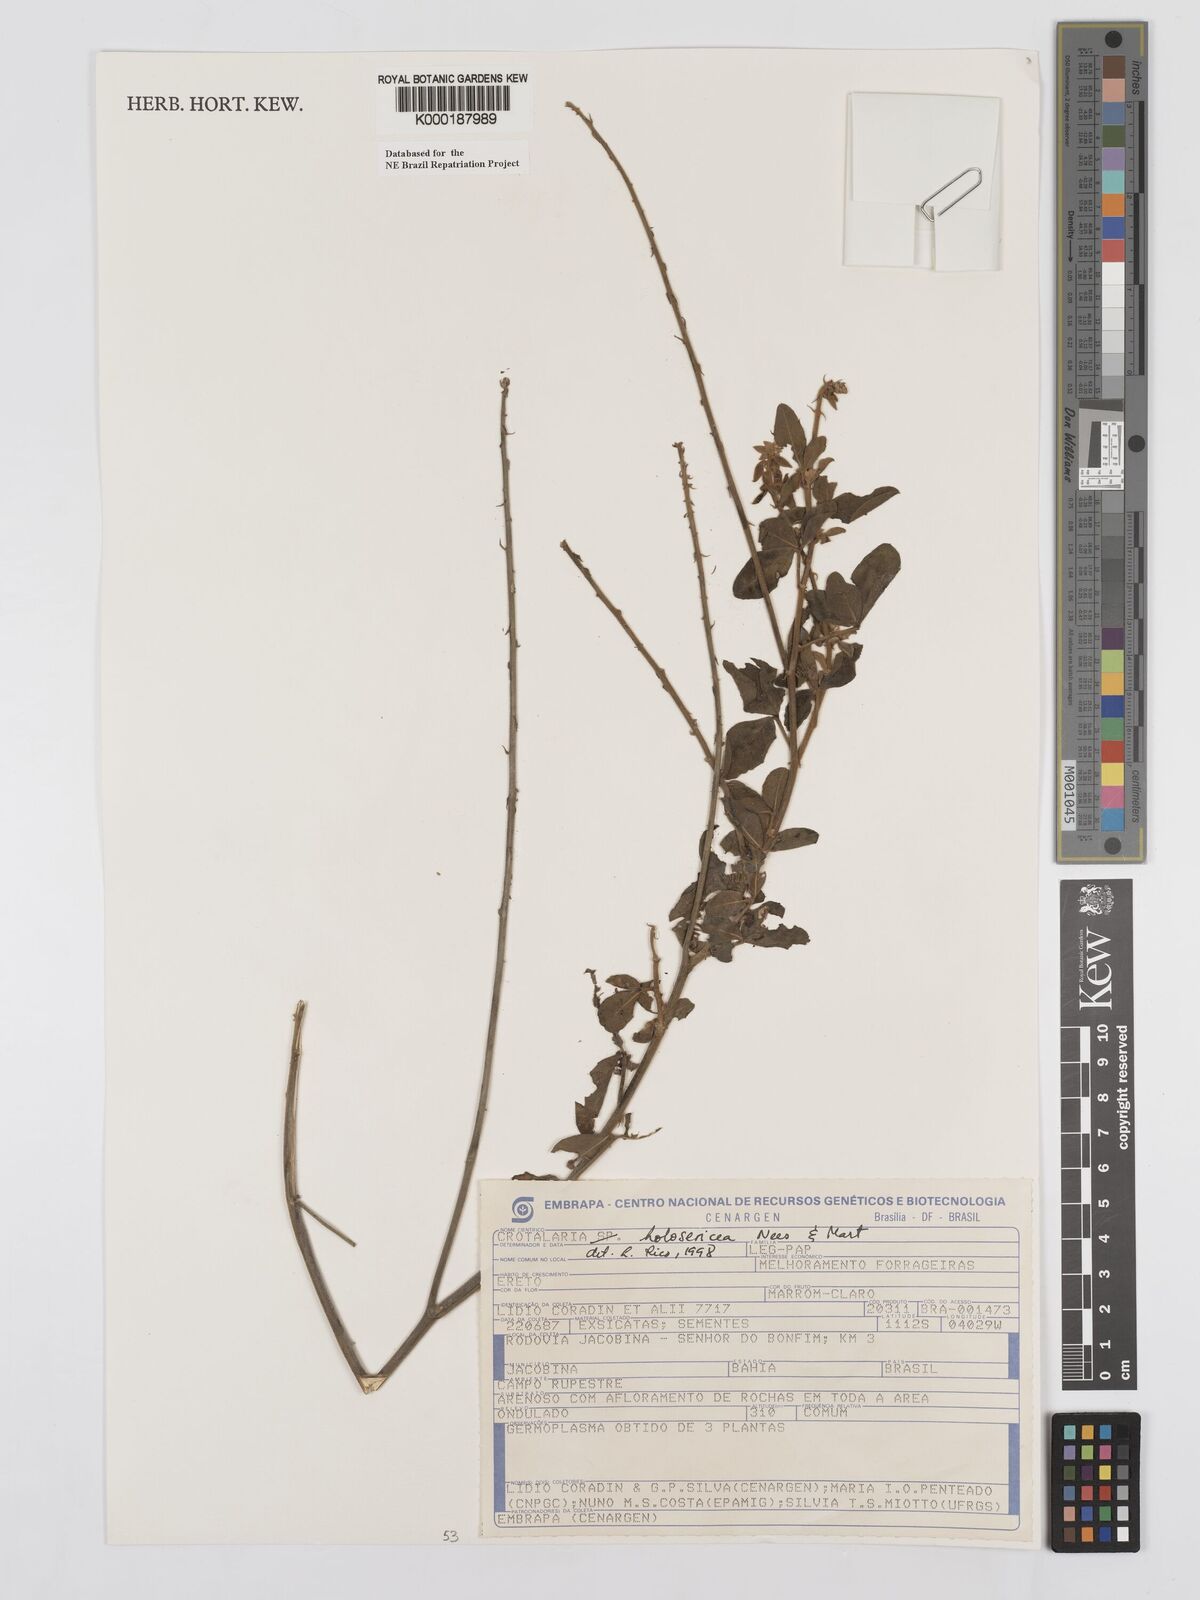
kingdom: Plantae
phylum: Tracheophyta
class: Magnoliopsida
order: Fabales
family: Fabaceae
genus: Crotalaria
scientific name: Crotalaria holosericea
